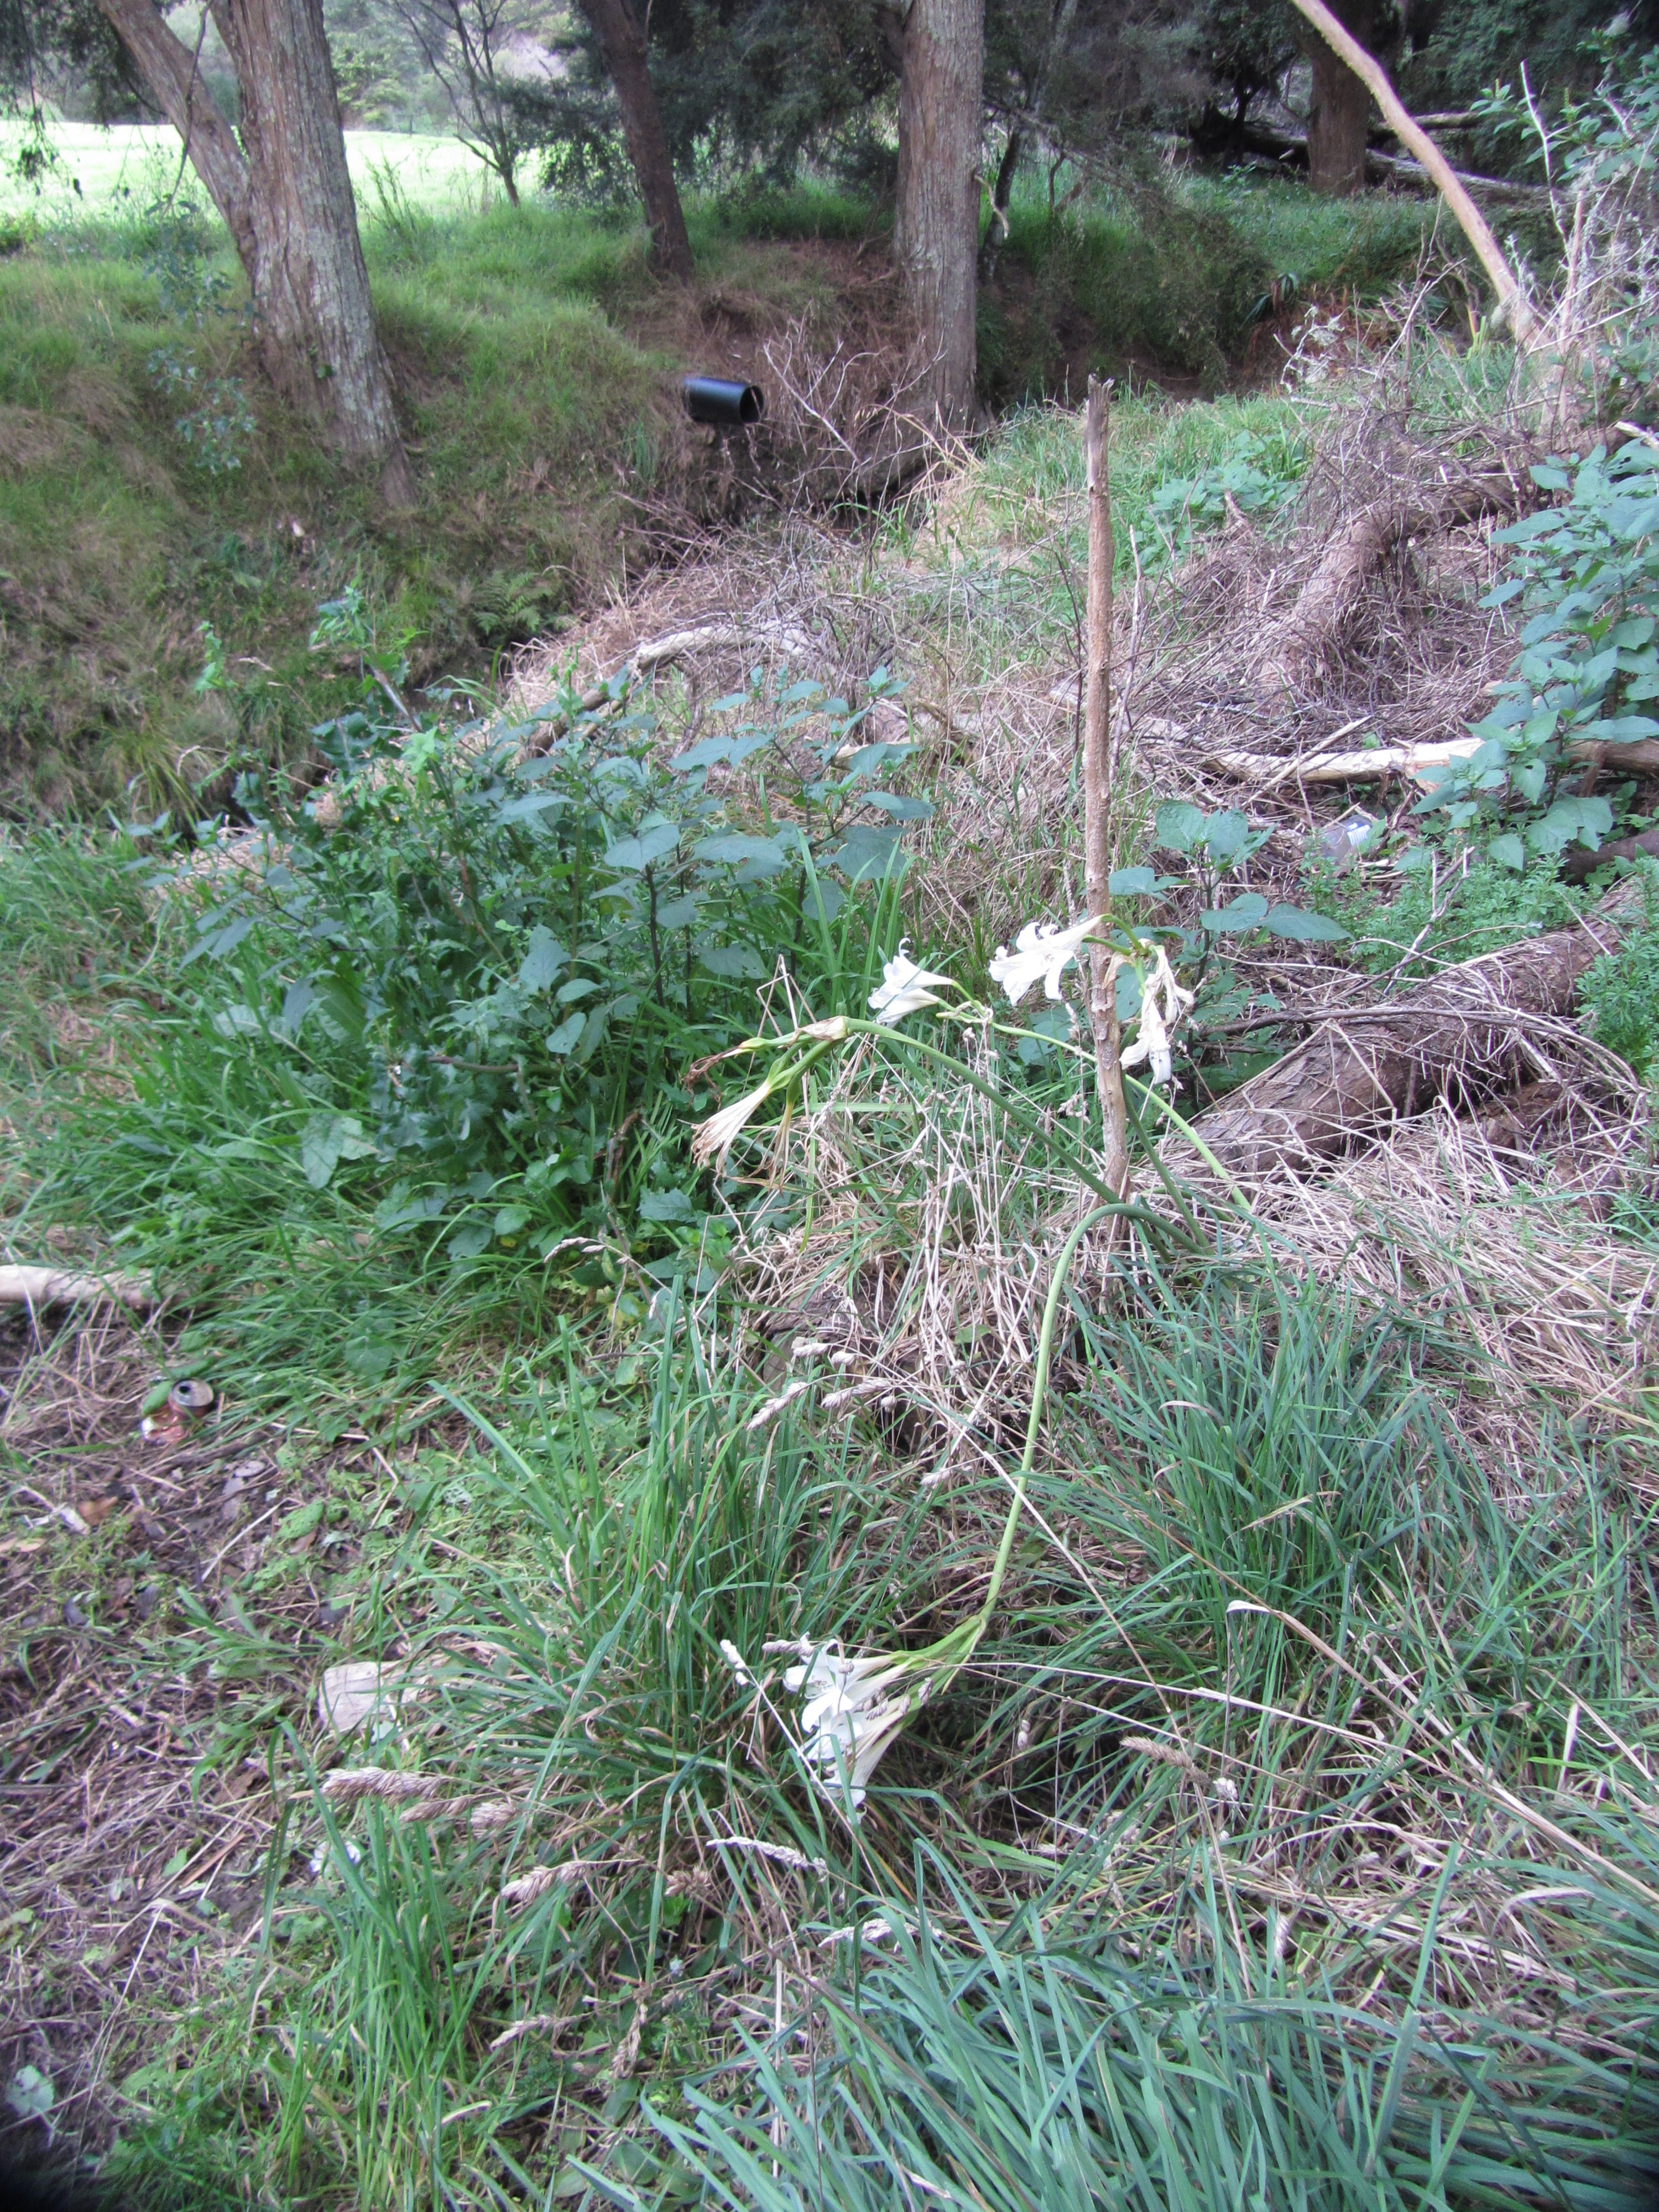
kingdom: Plantae
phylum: Tracheophyta
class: Liliopsida
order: Asparagales
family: Amaryllidaceae
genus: Amaryllis
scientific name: Amaryllis belladonna
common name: Jersey lily
